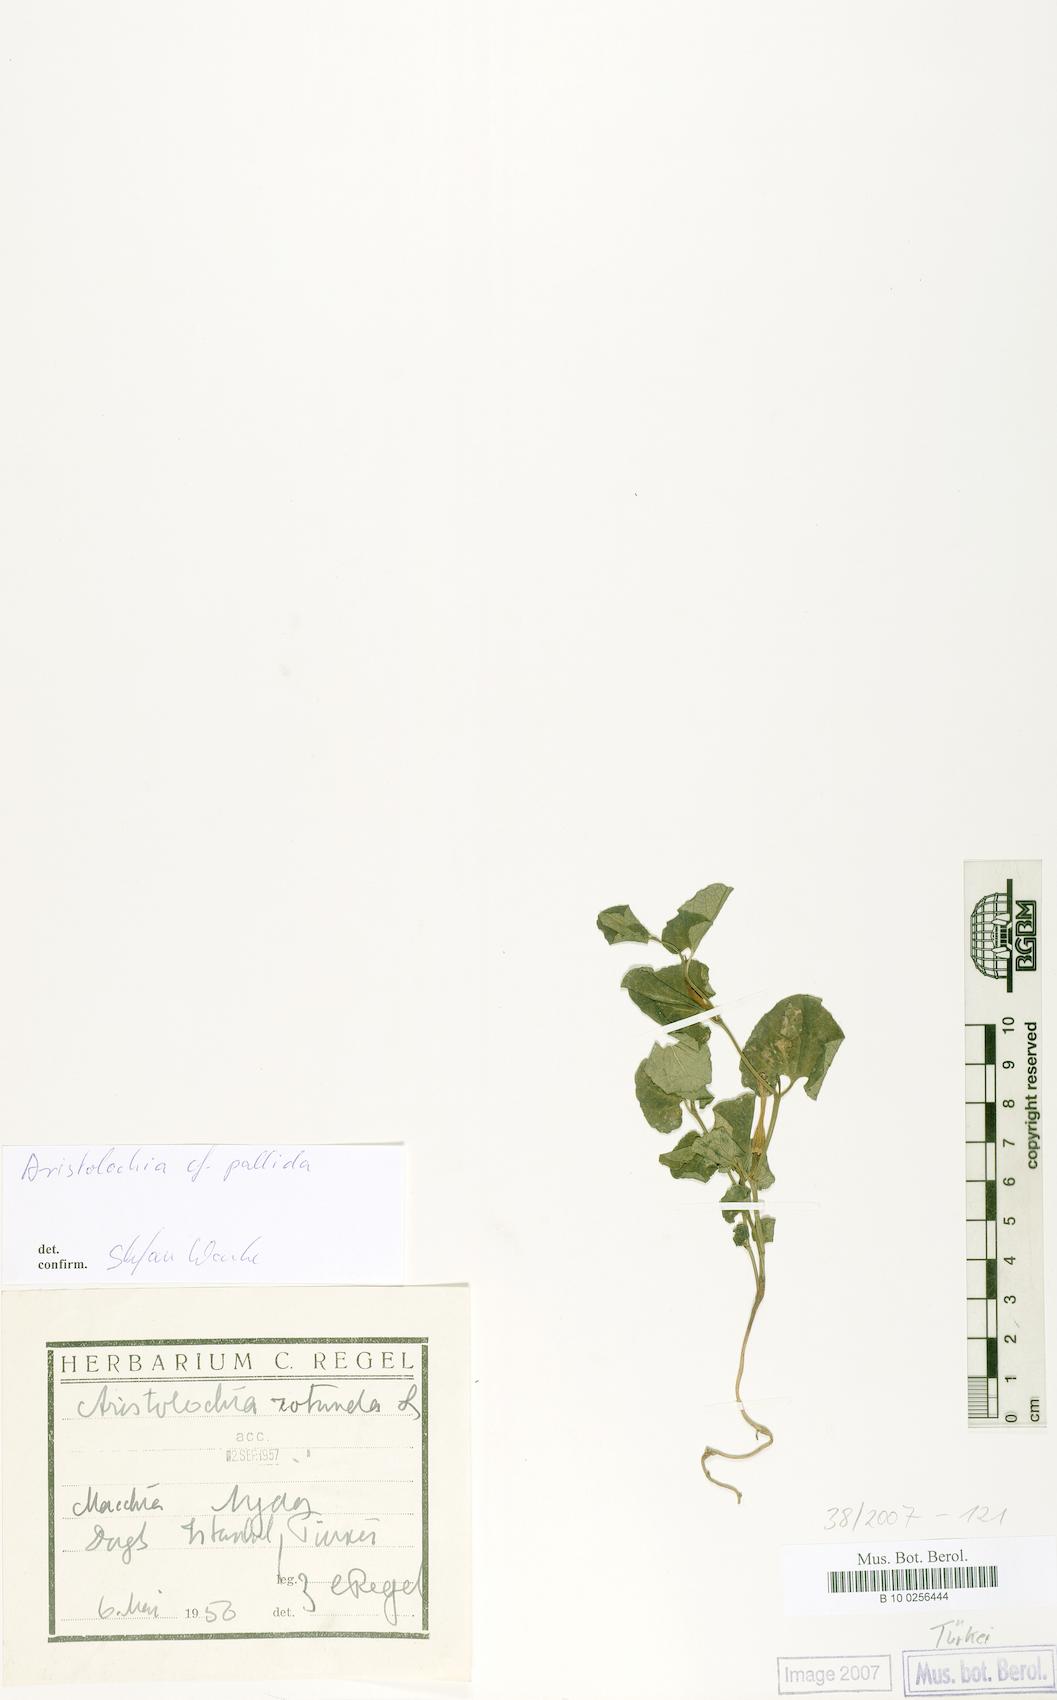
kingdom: Plantae
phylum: Tracheophyta
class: Magnoliopsida
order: Piperales
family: Aristolochiaceae
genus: Aristolochia
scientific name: Aristolochia pallida
